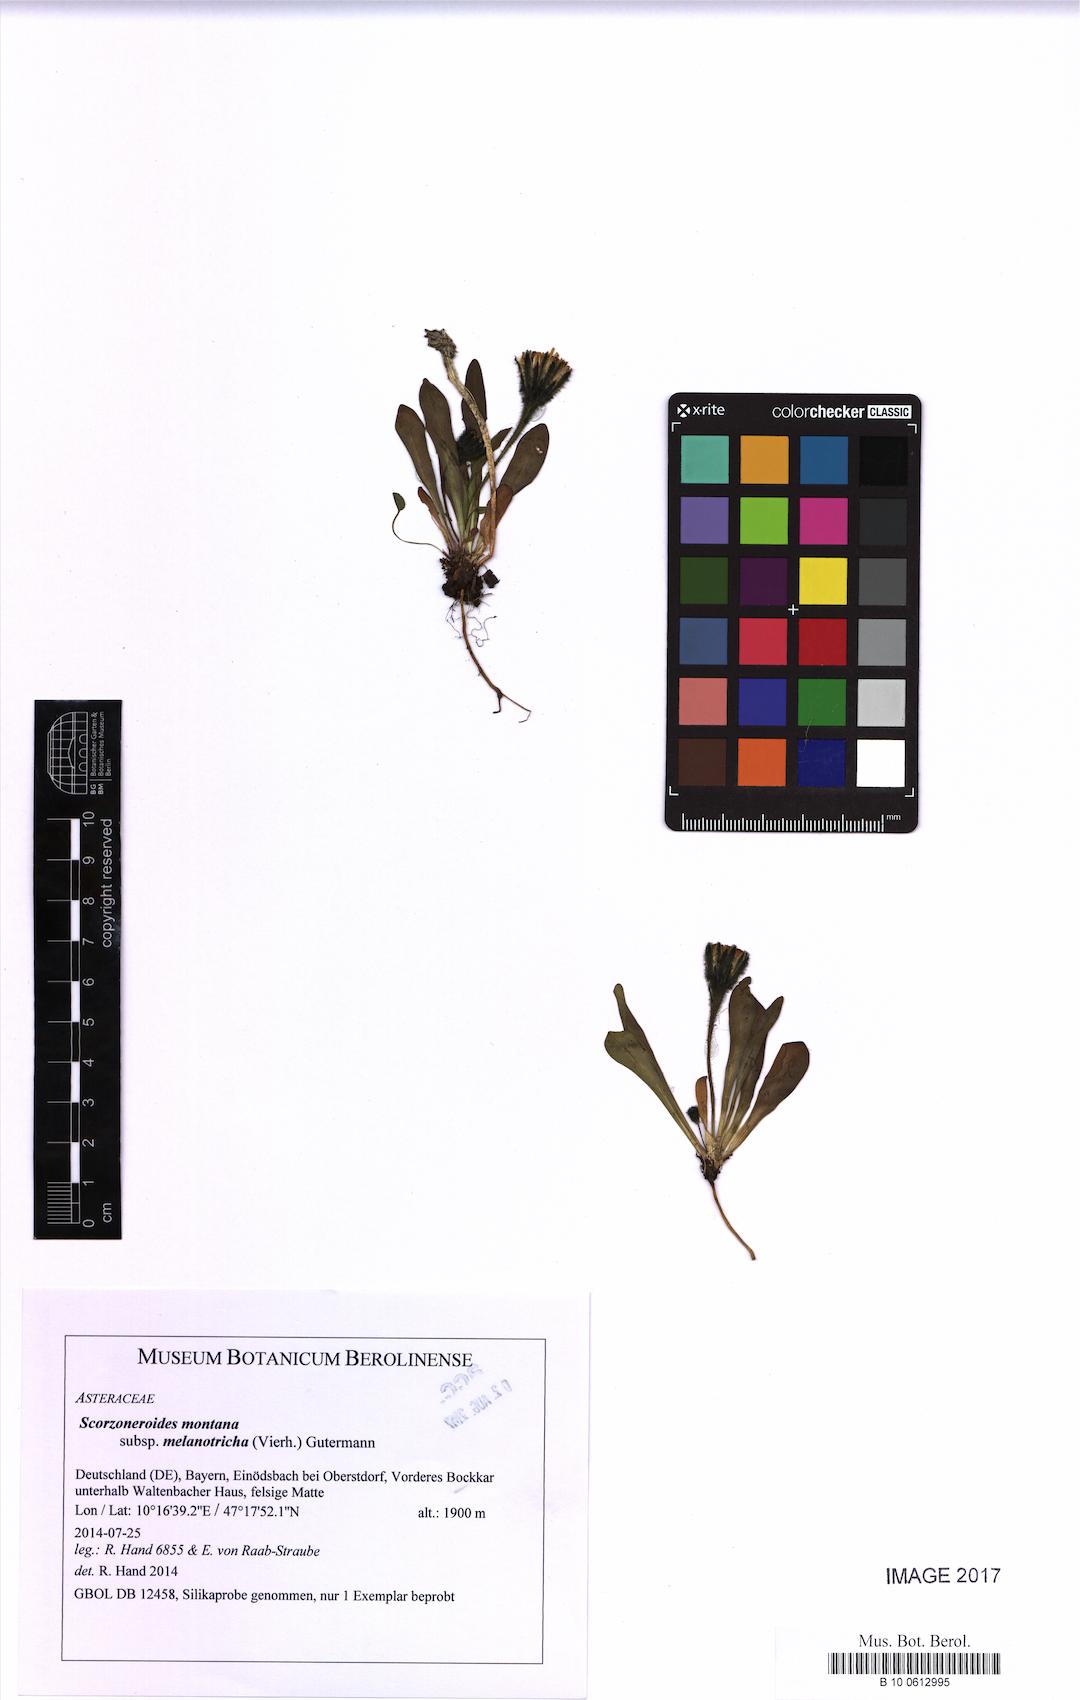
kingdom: Plantae
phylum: Tracheophyta
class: Magnoliopsida
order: Asterales
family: Asteraceae
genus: Scorzoneroides
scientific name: Scorzoneroides montana
